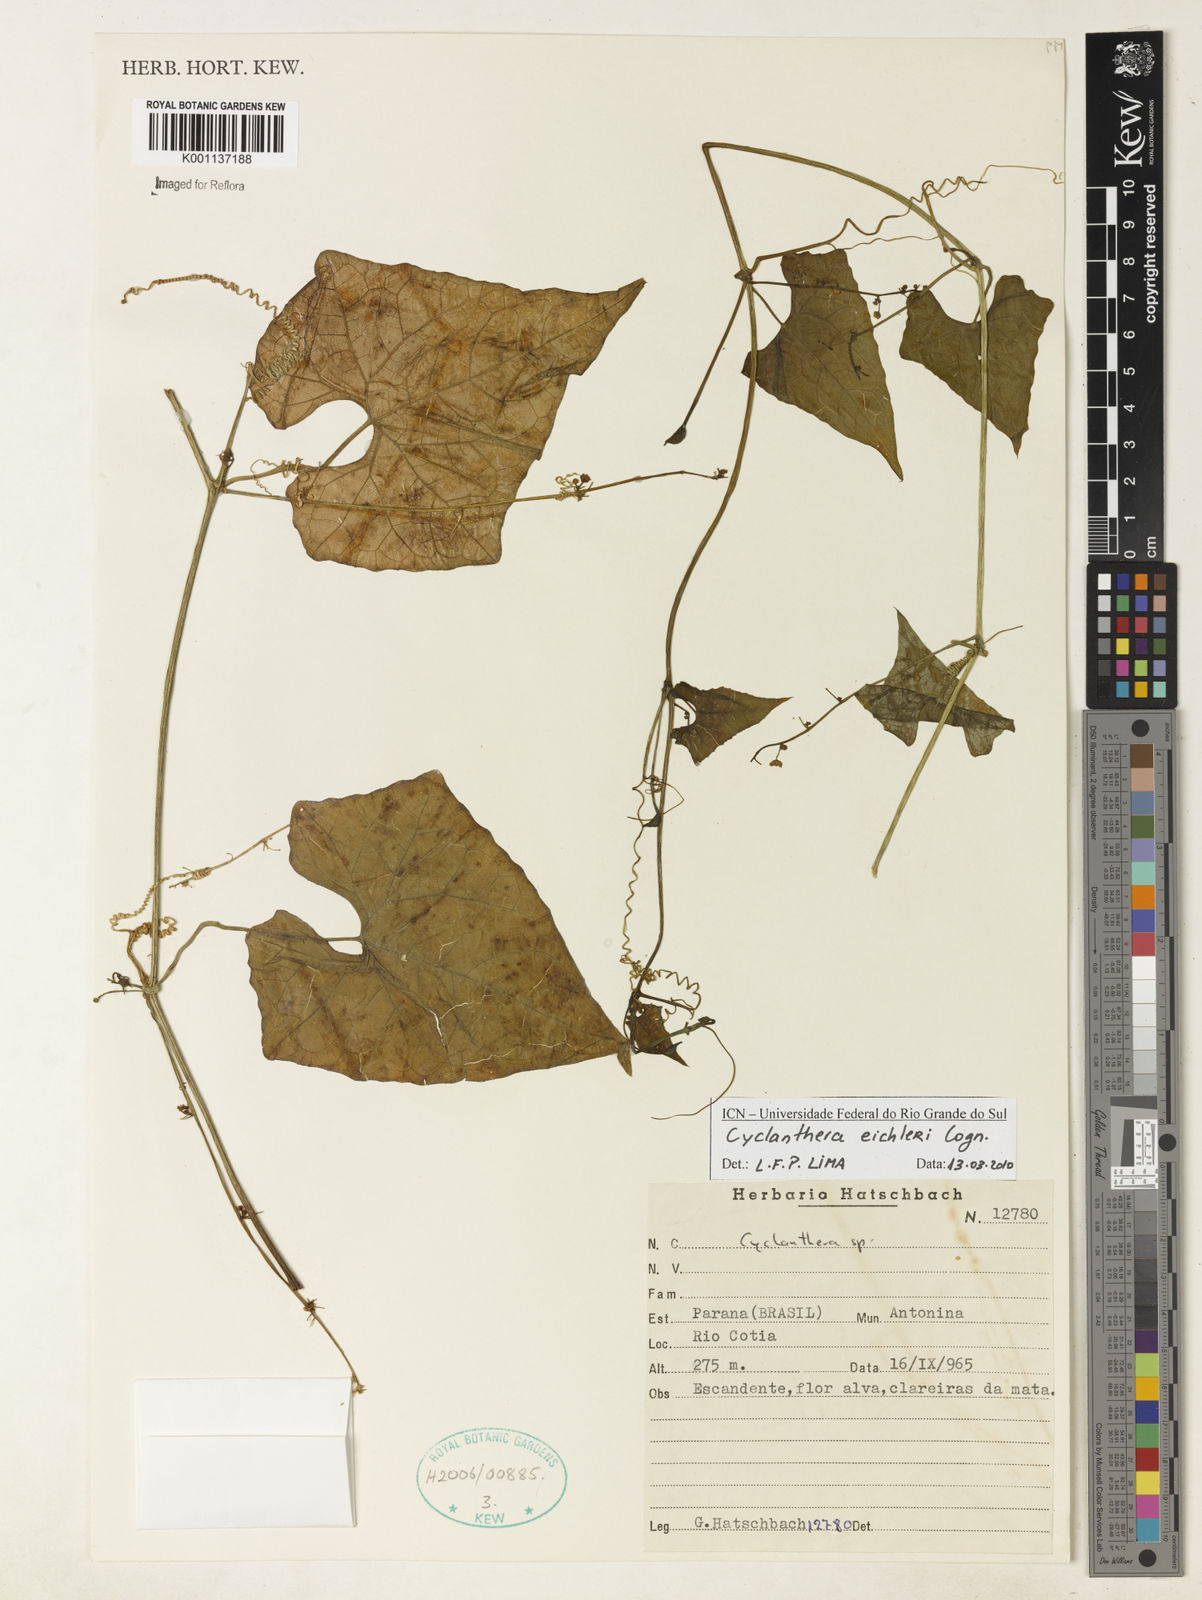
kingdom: Plantae
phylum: Tracheophyta
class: Magnoliopsida
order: Cucurbitales
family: Cucurbitaceae
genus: Cyclanthera
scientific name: Cyclanthera eichleri
